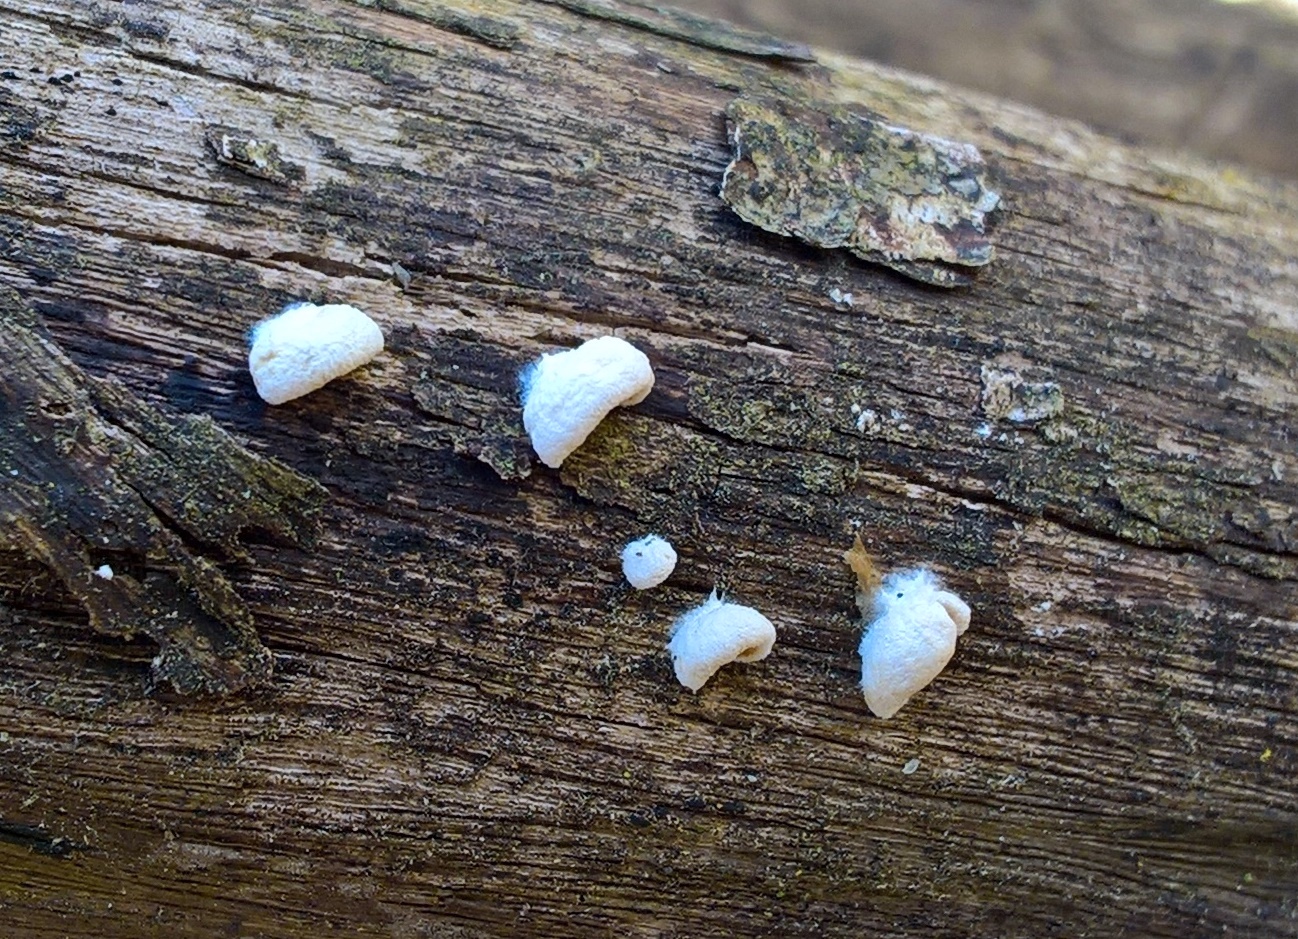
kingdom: Fungi
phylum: Basidiomycota
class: Agaricomycetes
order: Agaricales
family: Crepidotaceae
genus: Crepidotus
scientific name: Crepidotus
